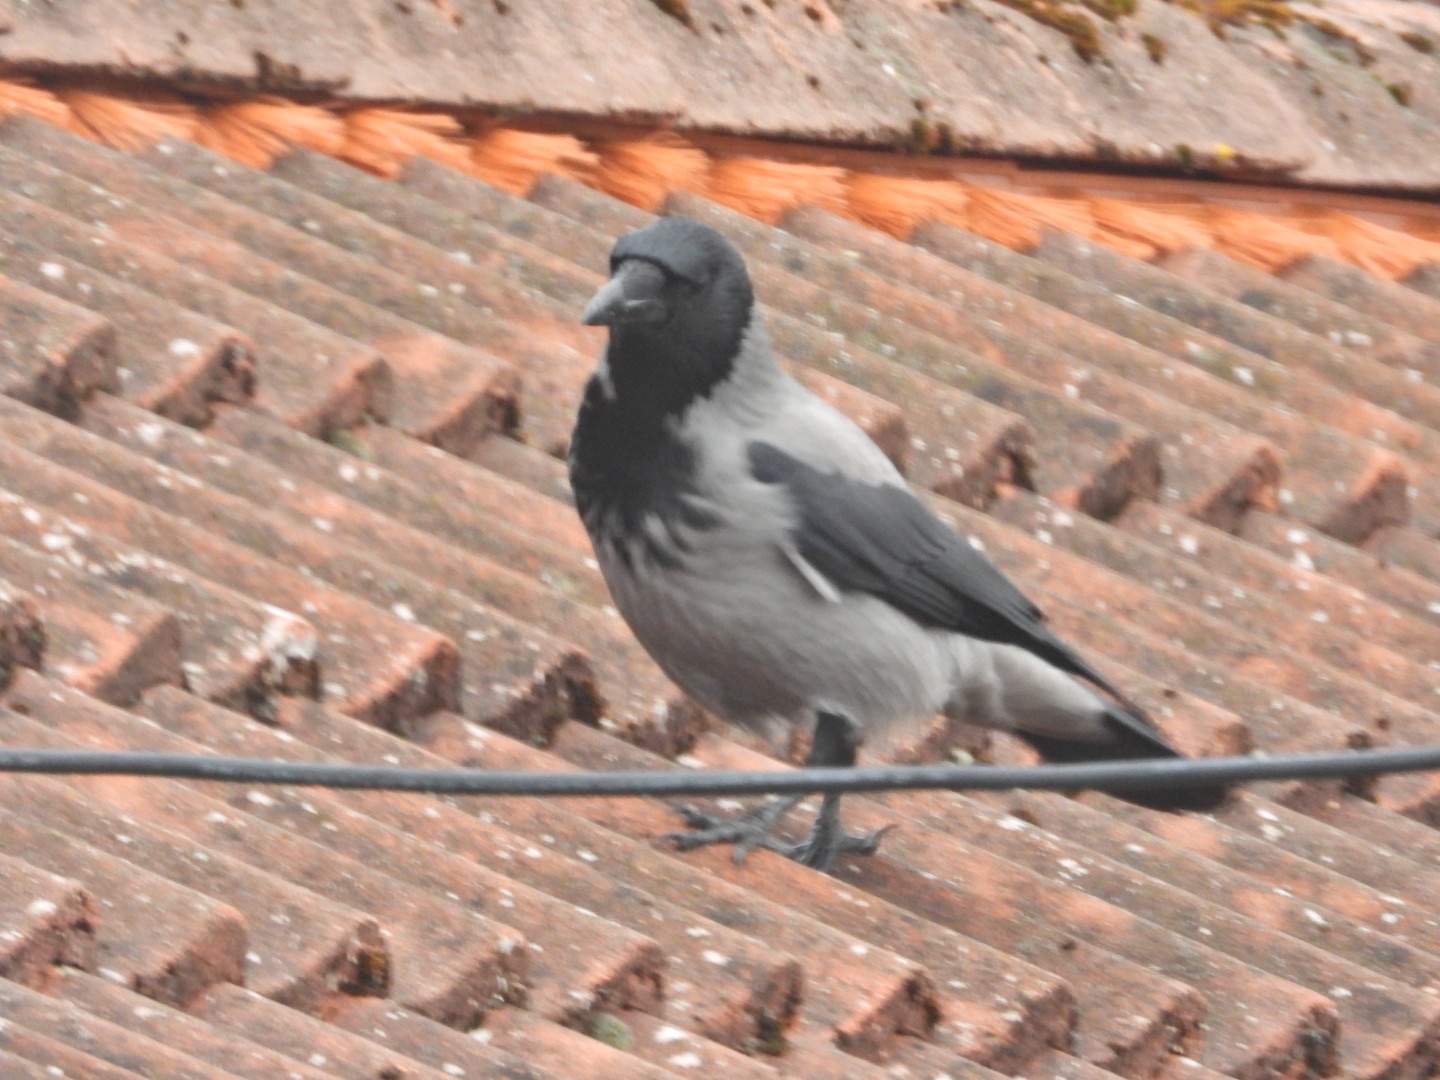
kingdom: Animalia
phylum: Chordata
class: Aves
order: Passeriformes
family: Corvidae
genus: Corvus
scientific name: Corvus cornix
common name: Gråkrage
